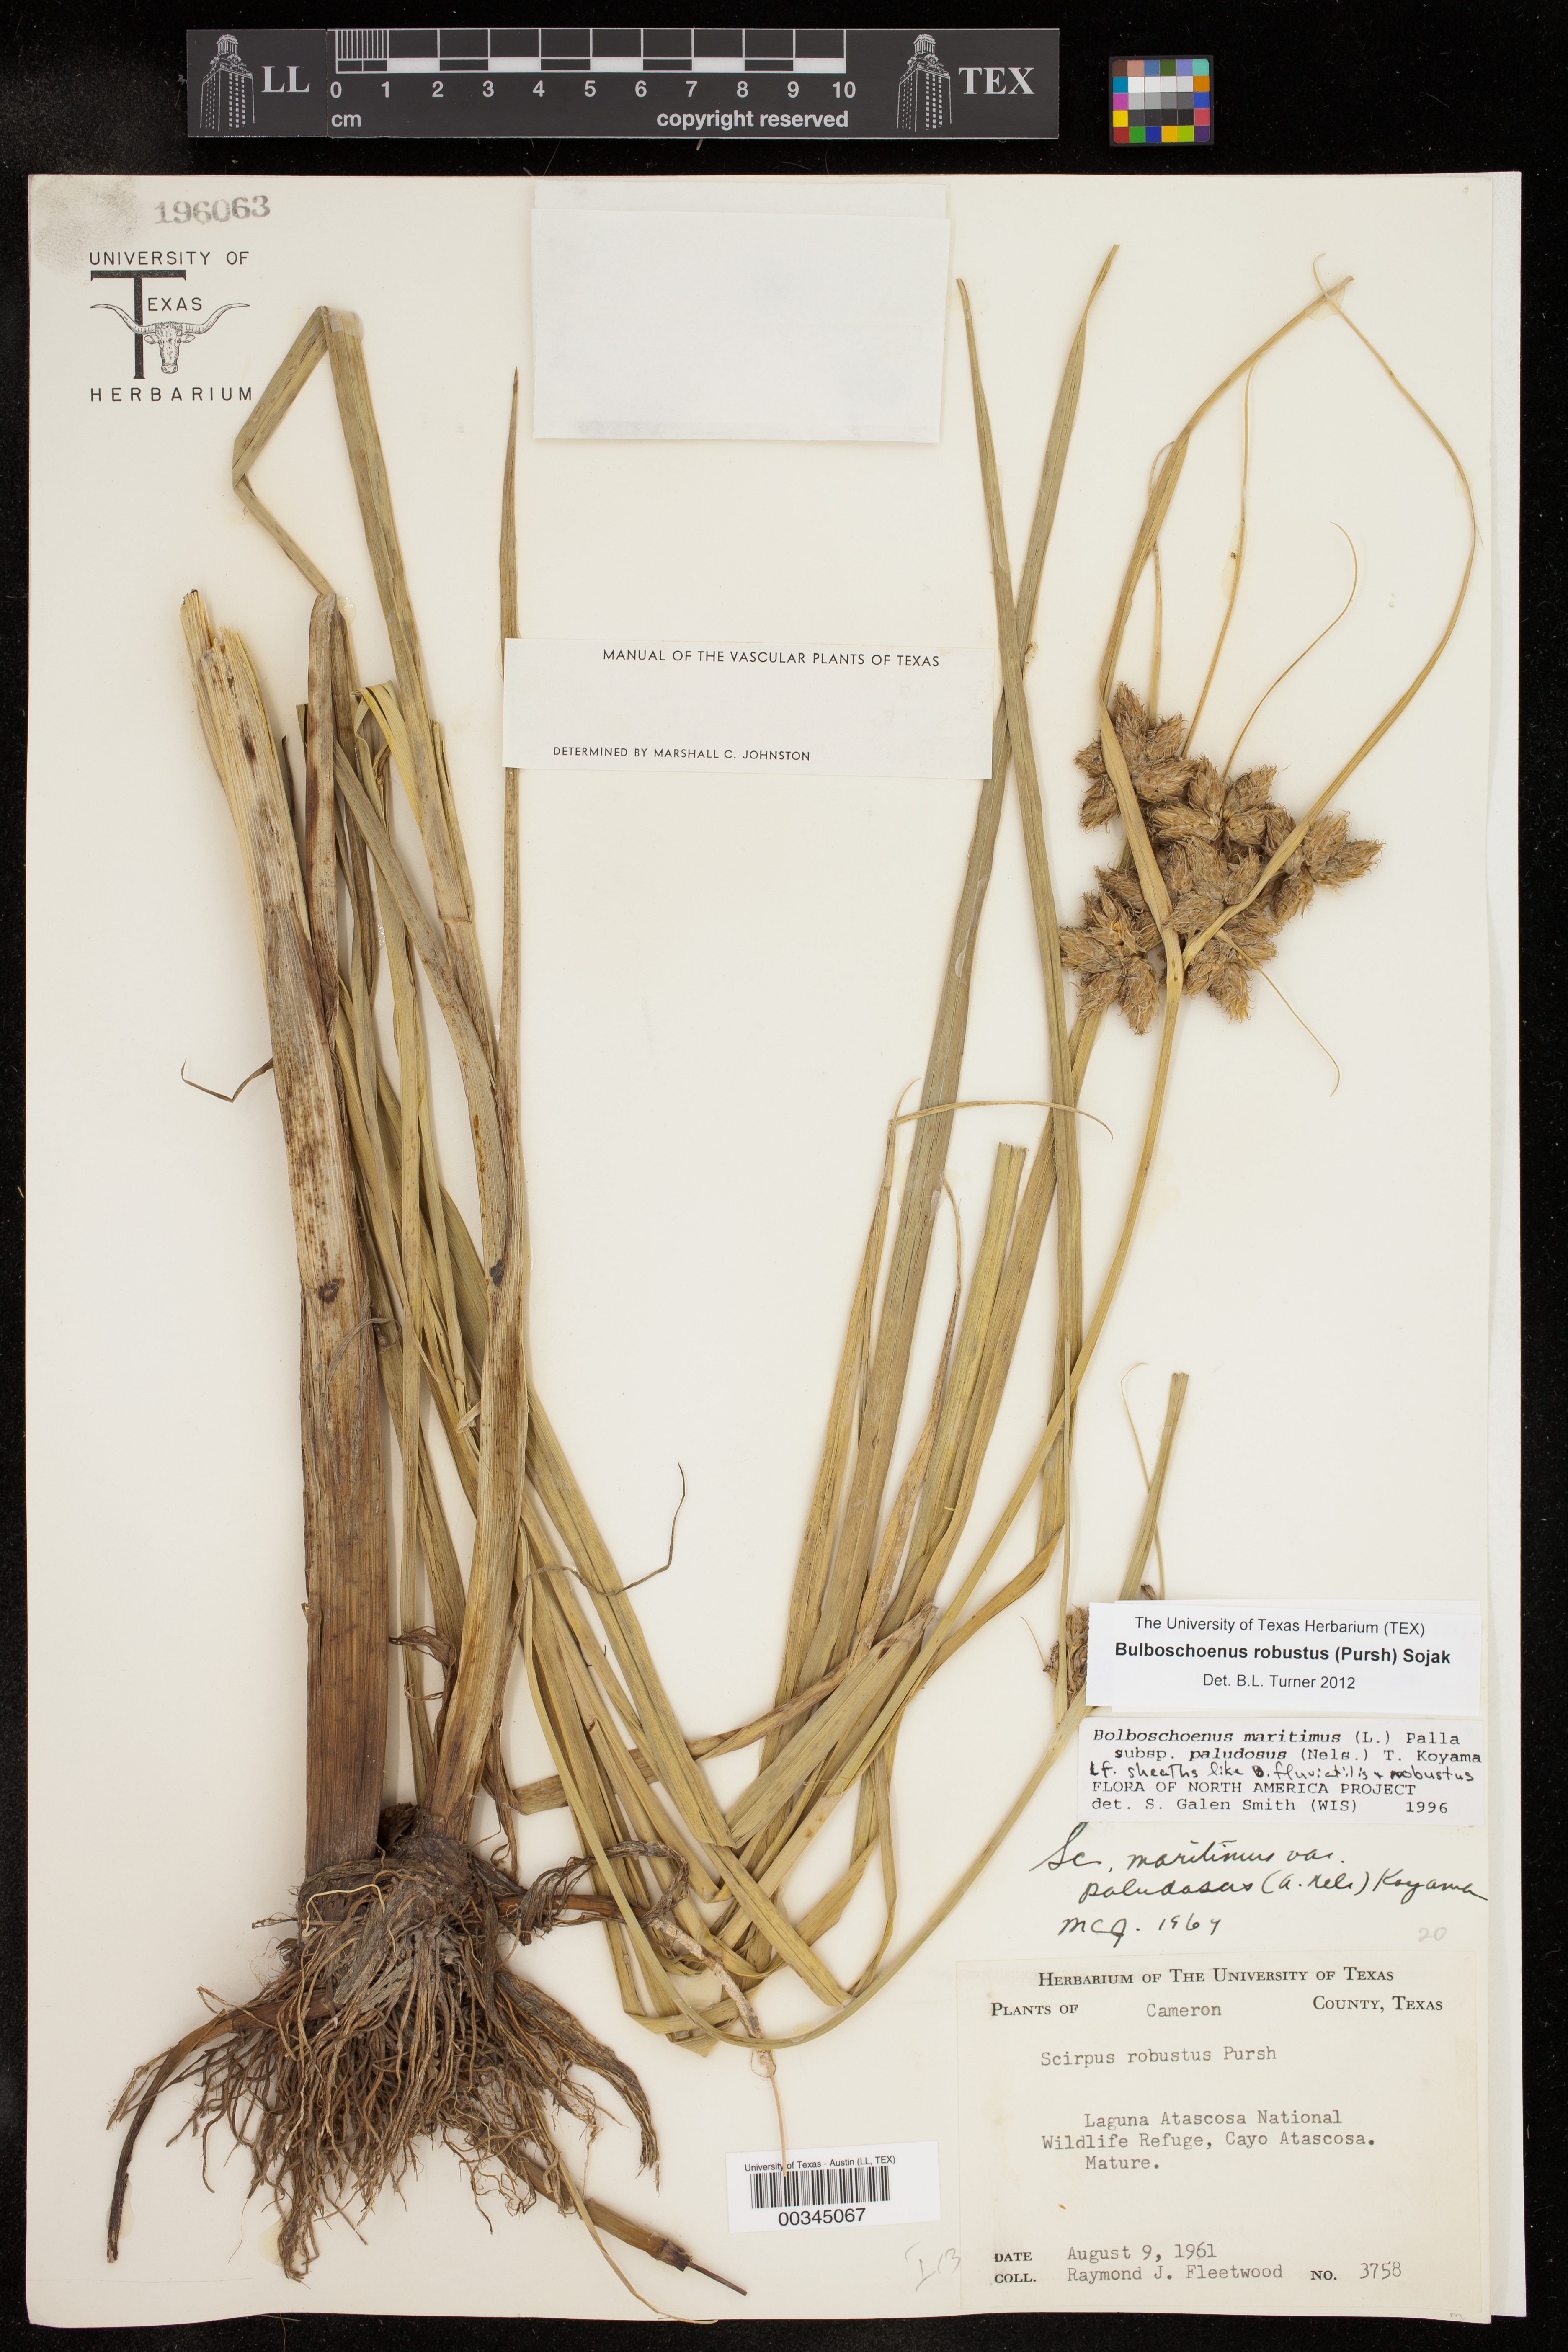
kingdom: Plantae
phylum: Tracheophyta
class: Liliopsida
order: Poales
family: Cyperaceae
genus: Bolboschoenus
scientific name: Bolboschoenus robustus
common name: Seacoast bulrush
